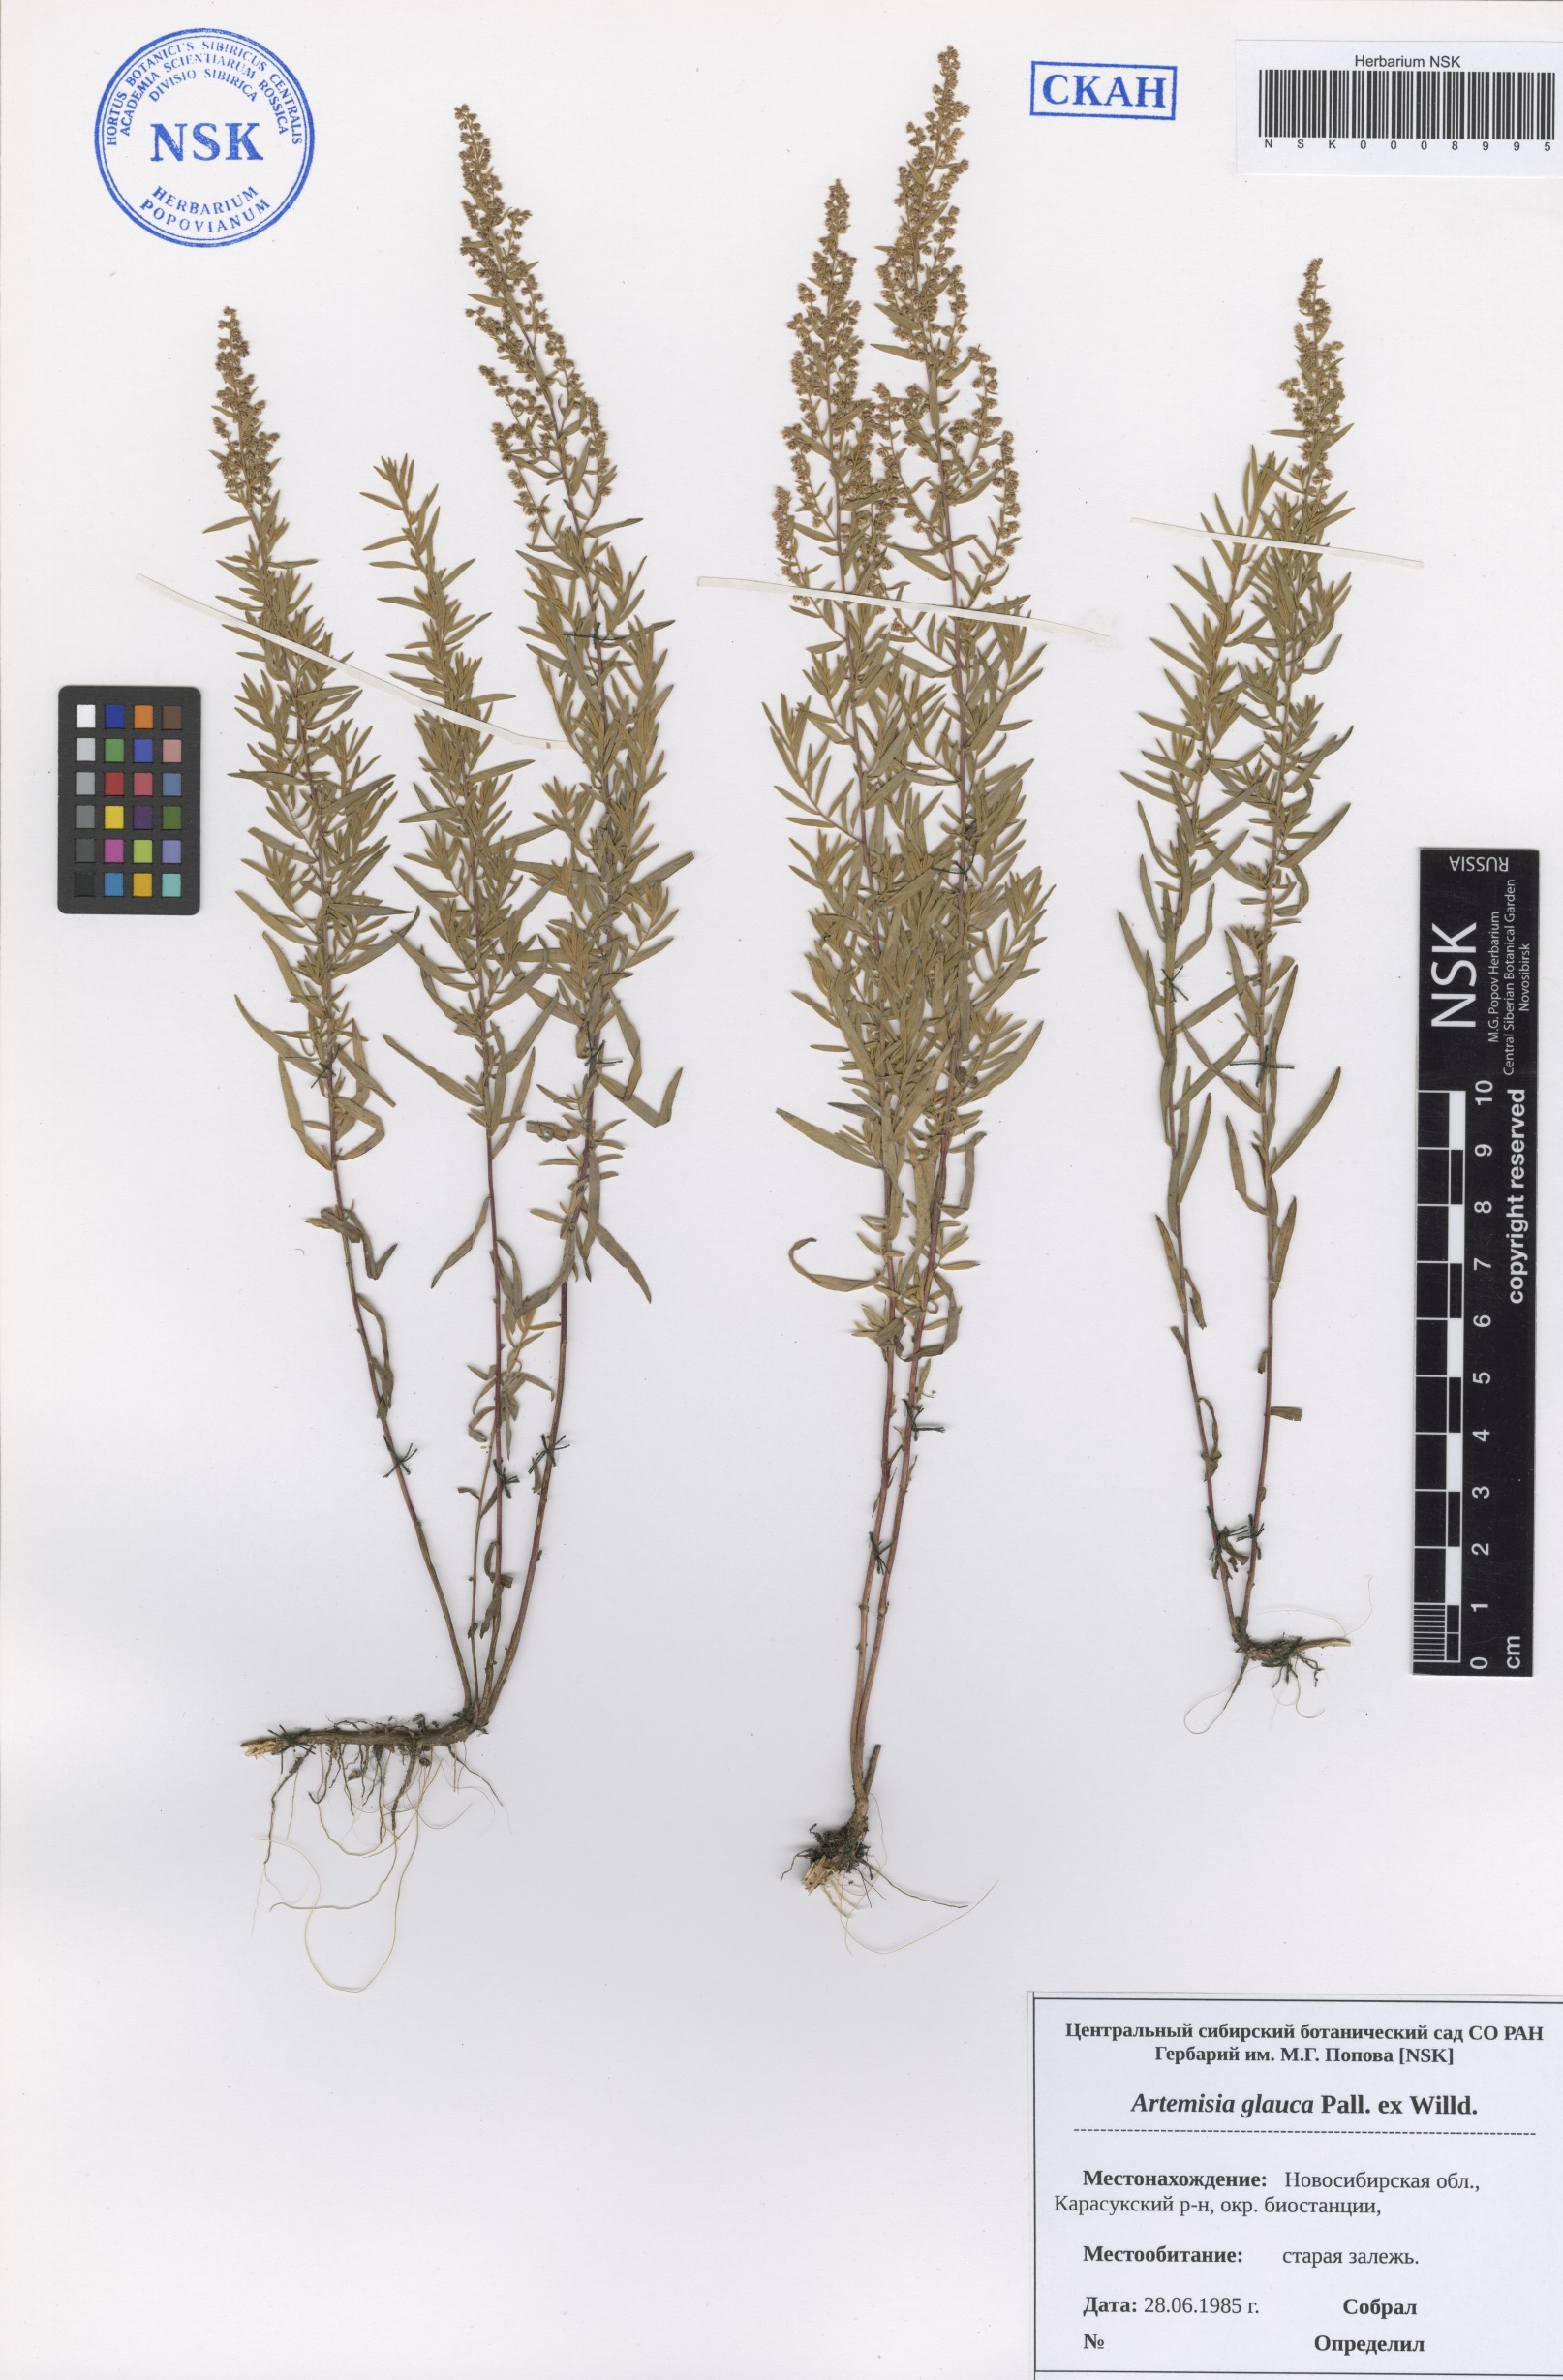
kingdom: Plantae
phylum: Tracheophyta
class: Magnoliopsida
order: Asterales
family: Asteraceae
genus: Artemisia
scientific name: Artemisia glauca
